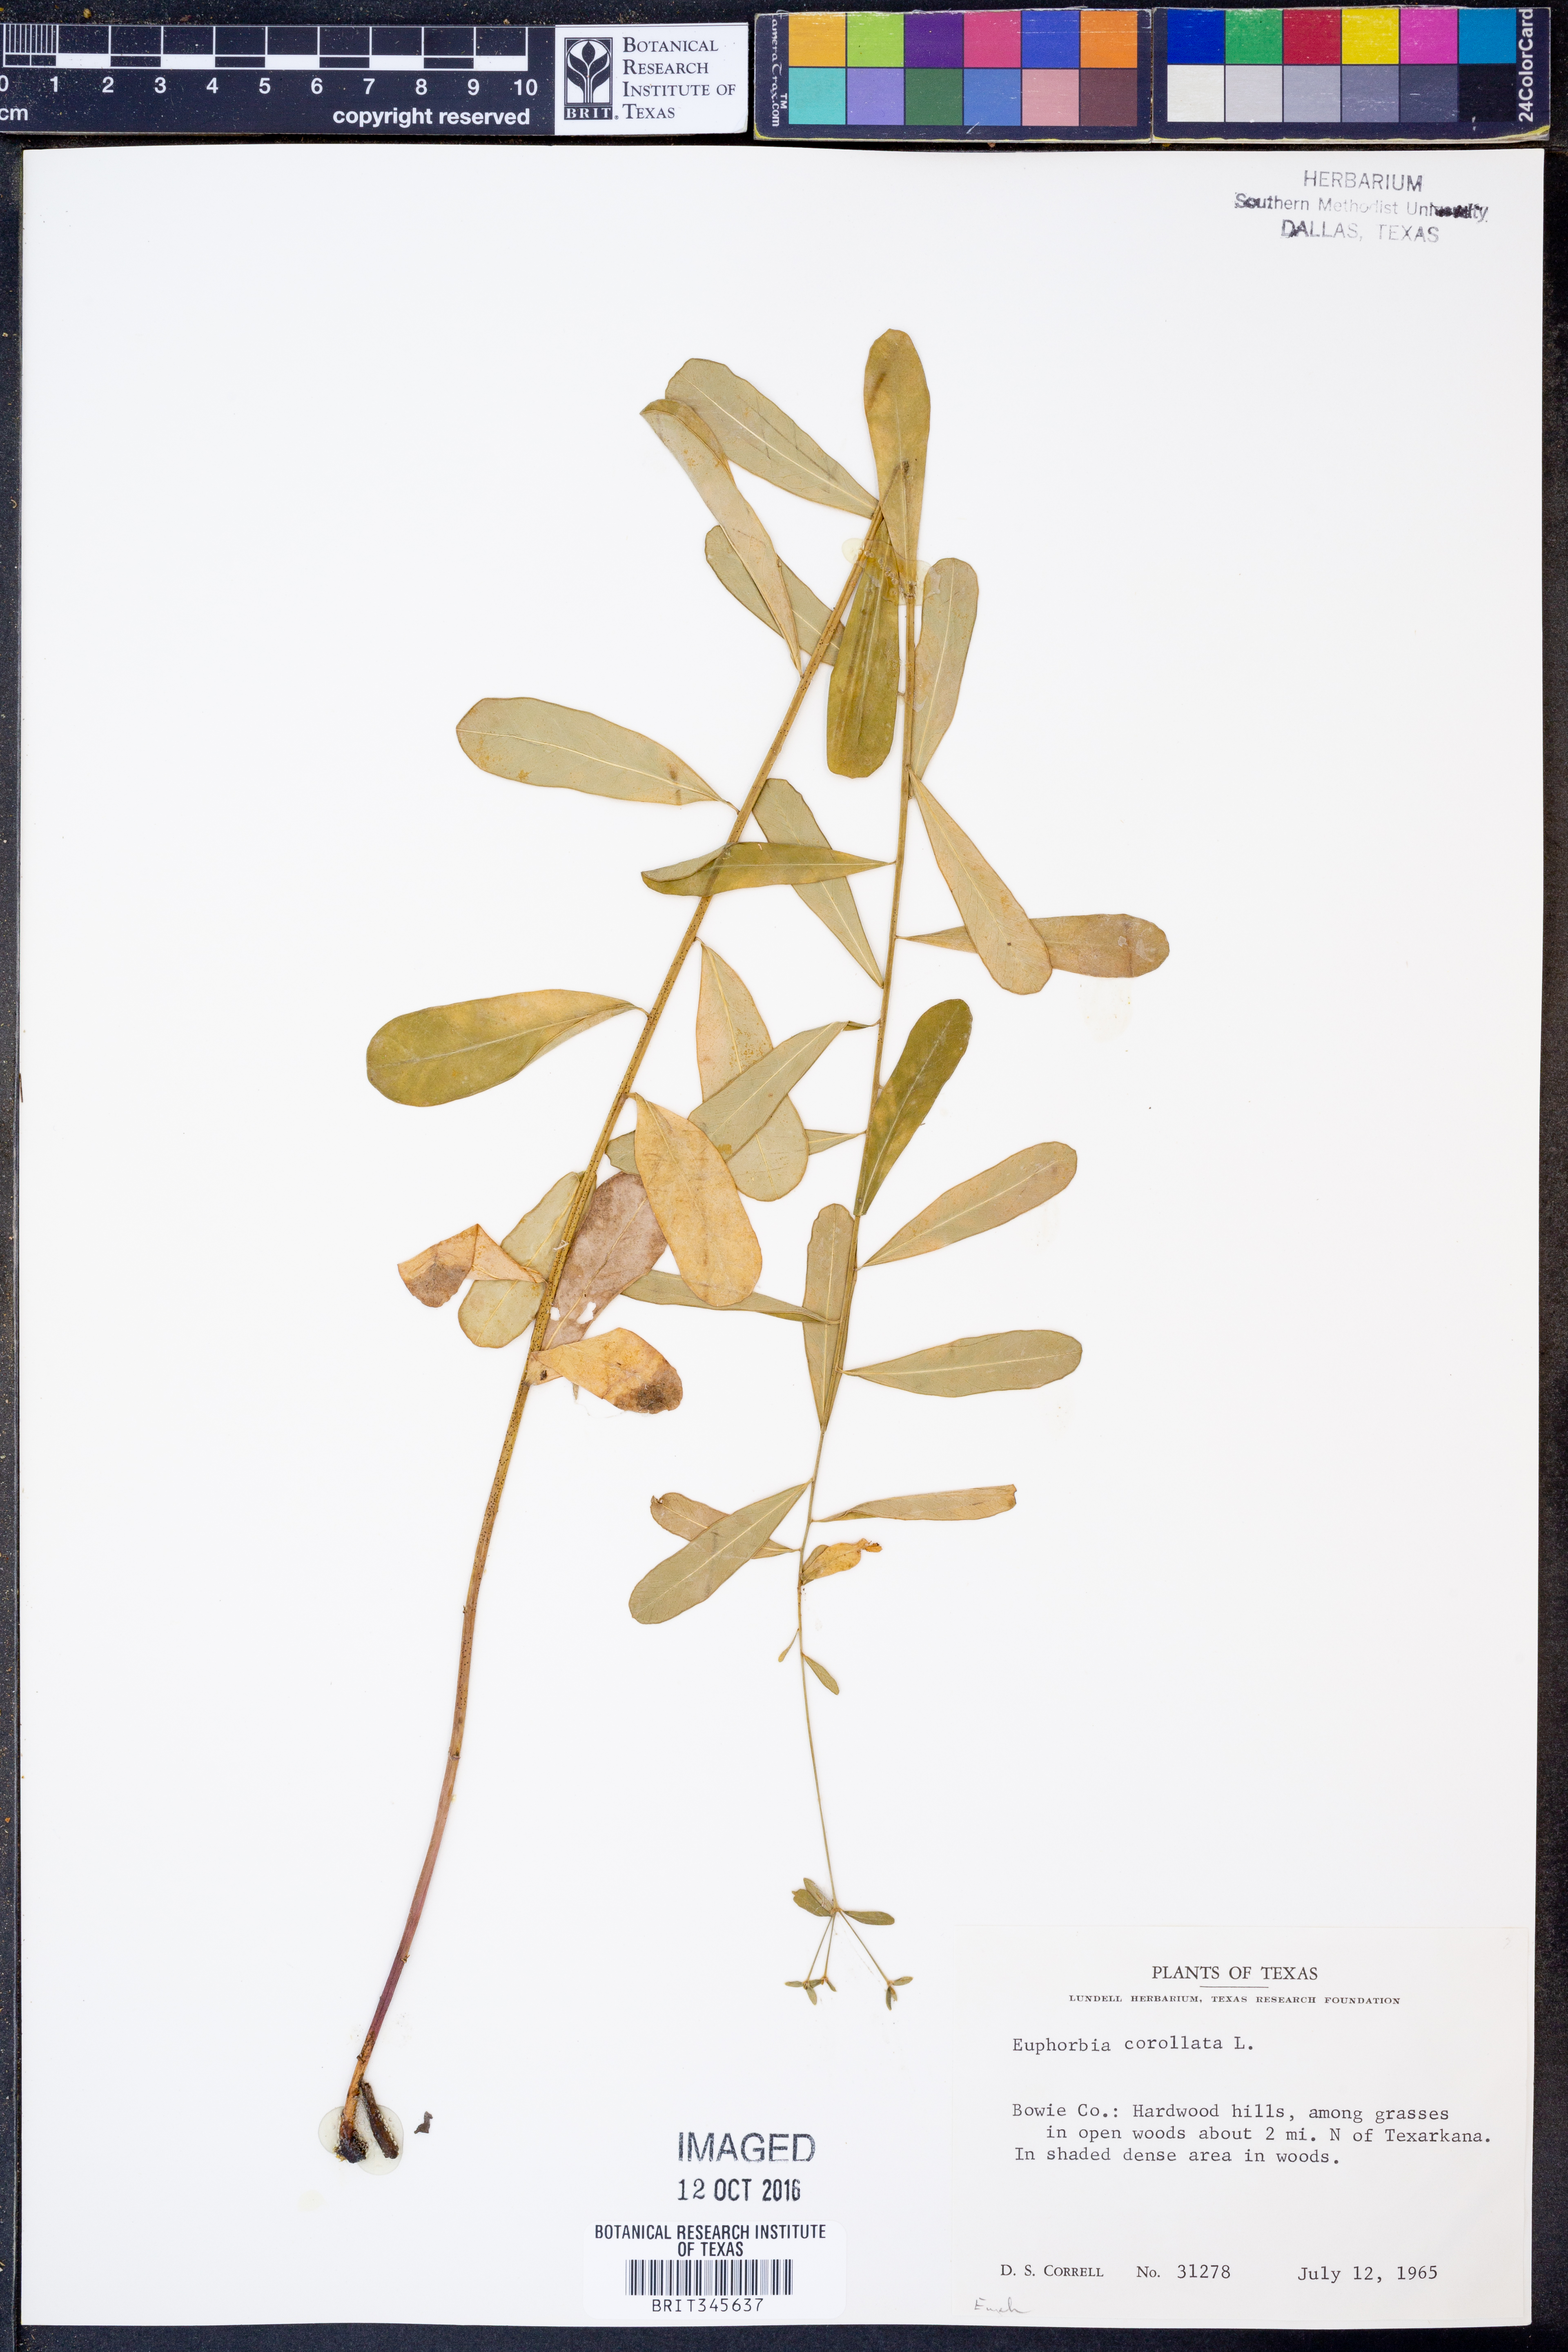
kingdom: Plantae
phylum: Tracheophyta
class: Magnoliopsida
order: Malpighiales
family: Euphorbiaceae
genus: Euphorbia
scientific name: Euphorbia corollata
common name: Flowering spurge
